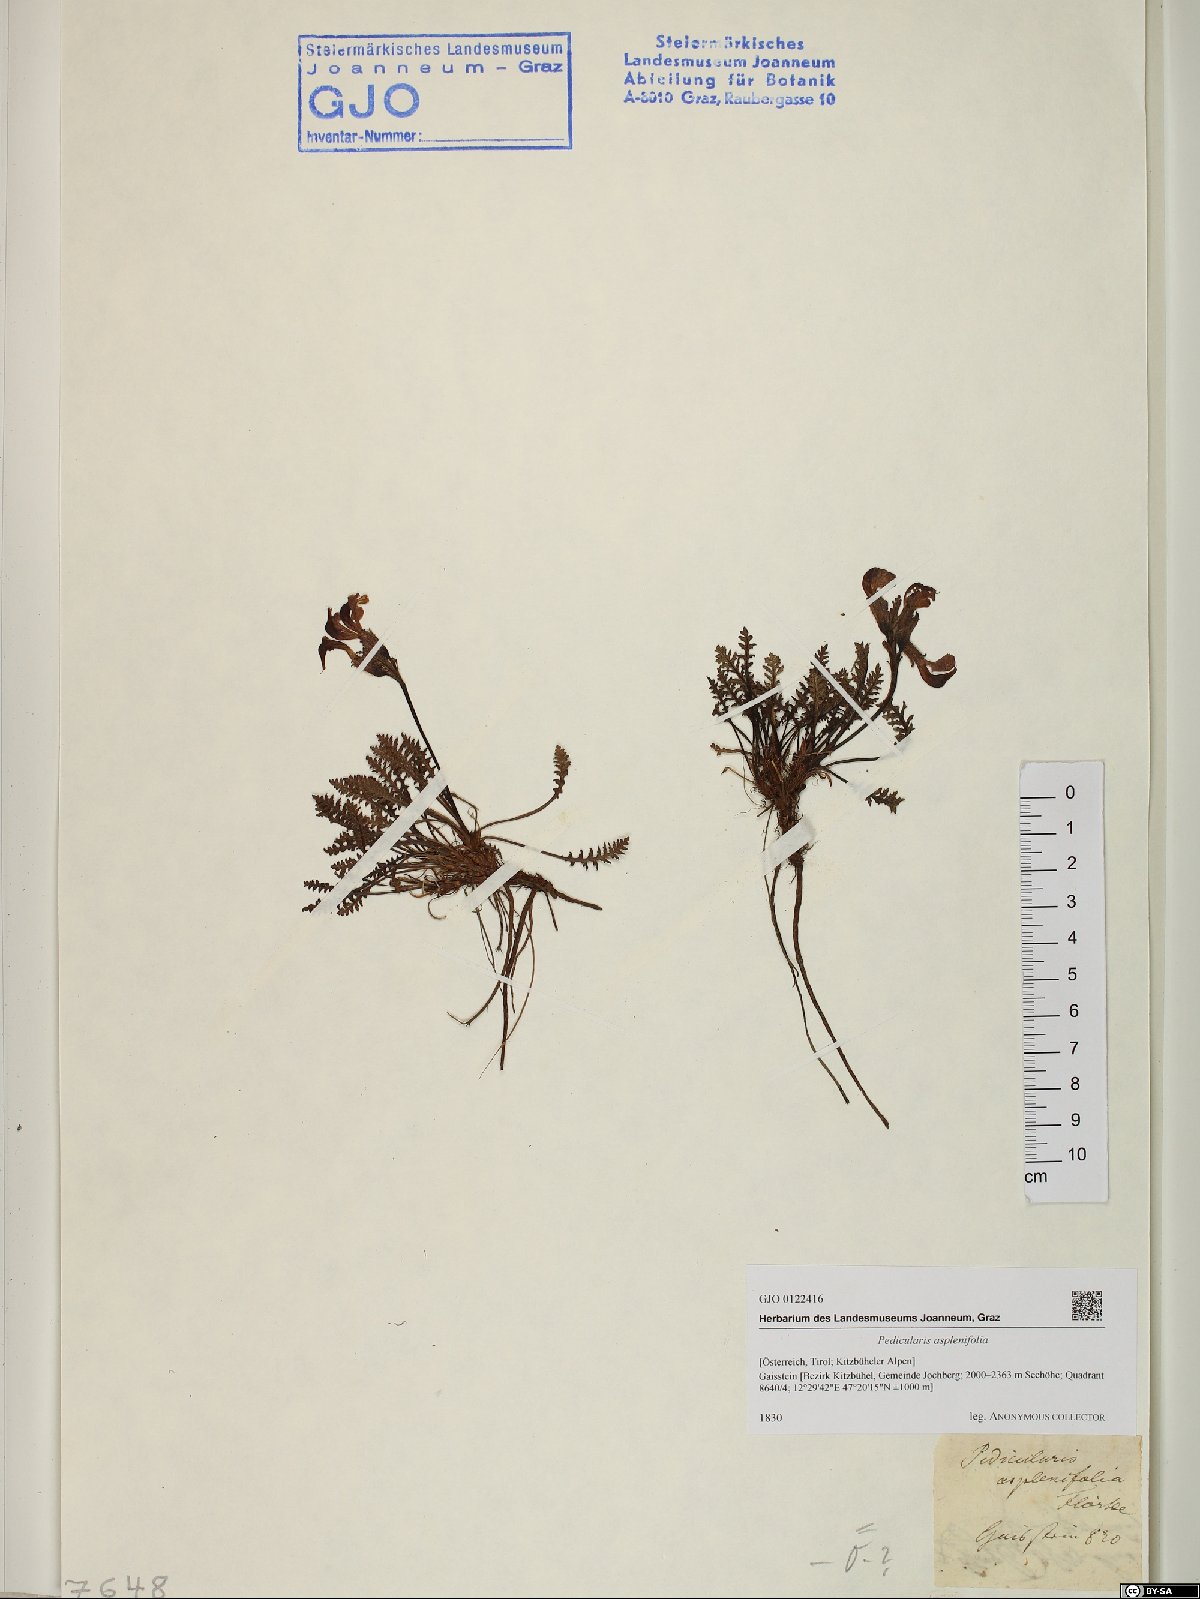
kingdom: Plantae
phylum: Tracheophyta
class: Magnoliopsida
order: Lamiales
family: Orobanchaceae
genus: Pedicularis
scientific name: Pedicularis asplenifolia
